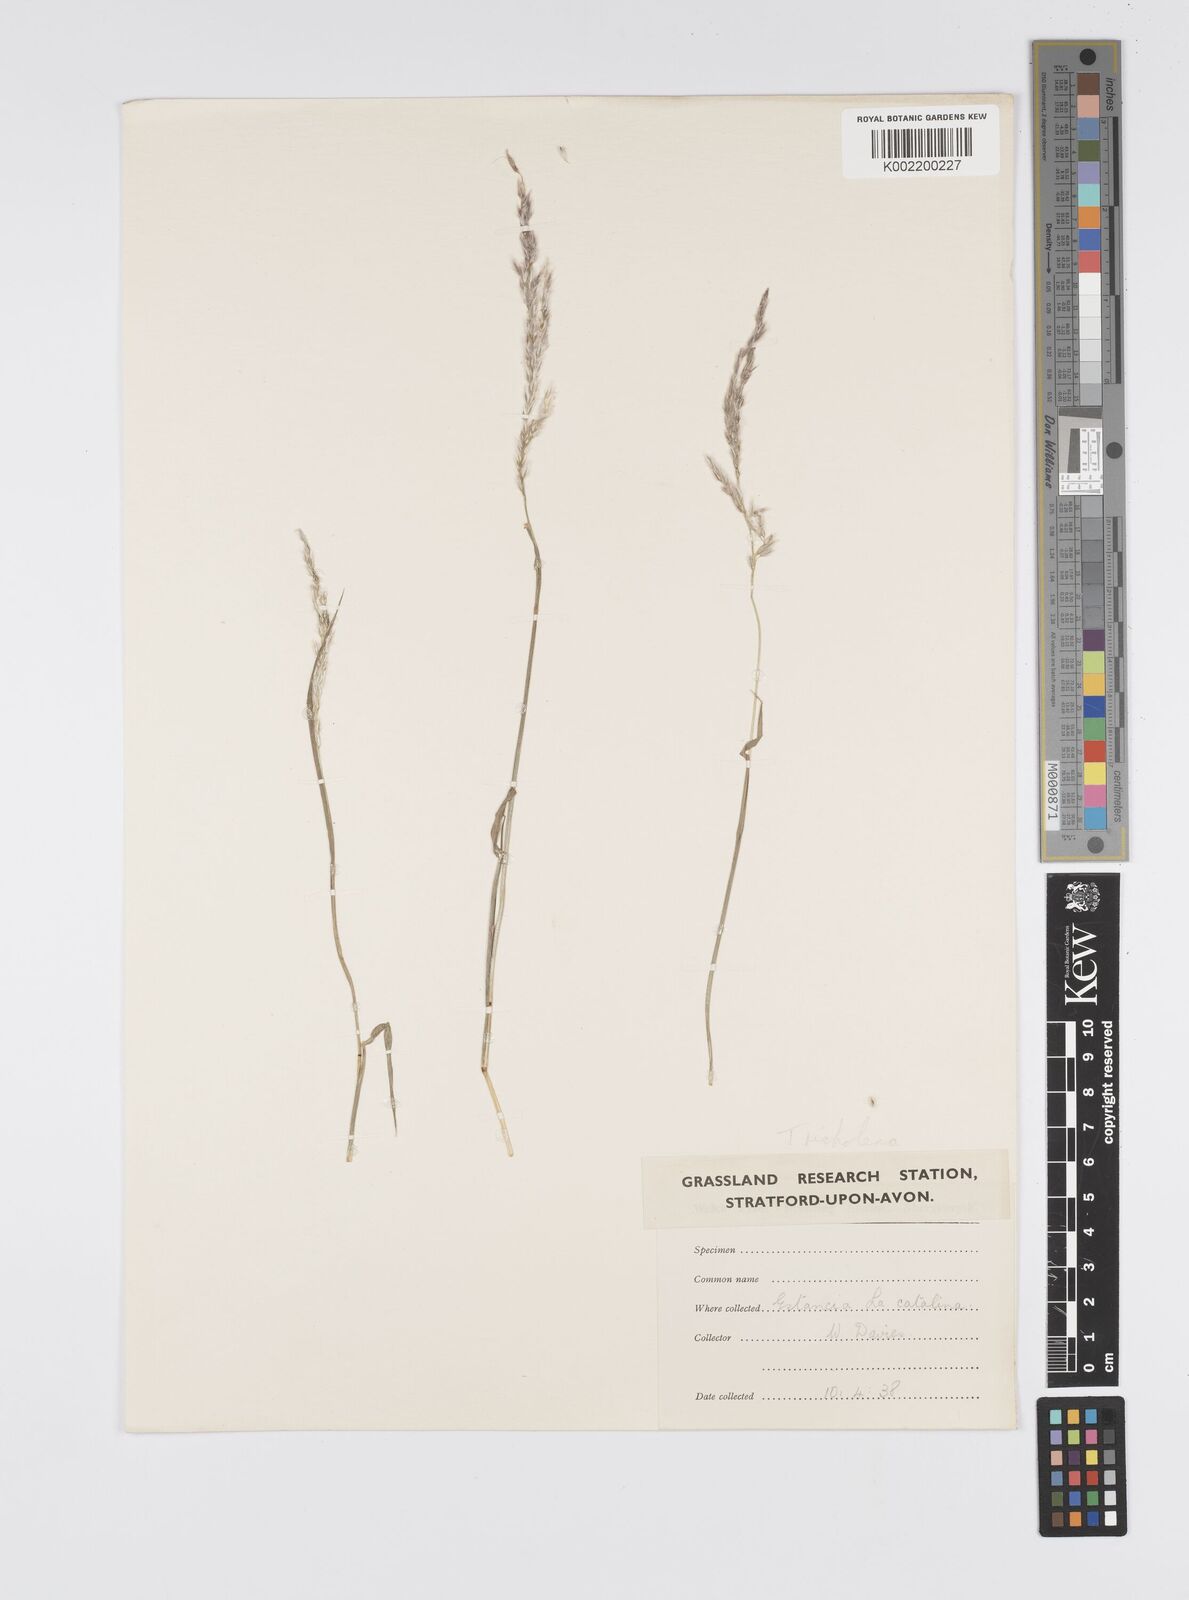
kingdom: Plantae
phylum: Tracheophyta
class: Liliopsida
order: Poales
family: Poaceae
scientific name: Poaceae
